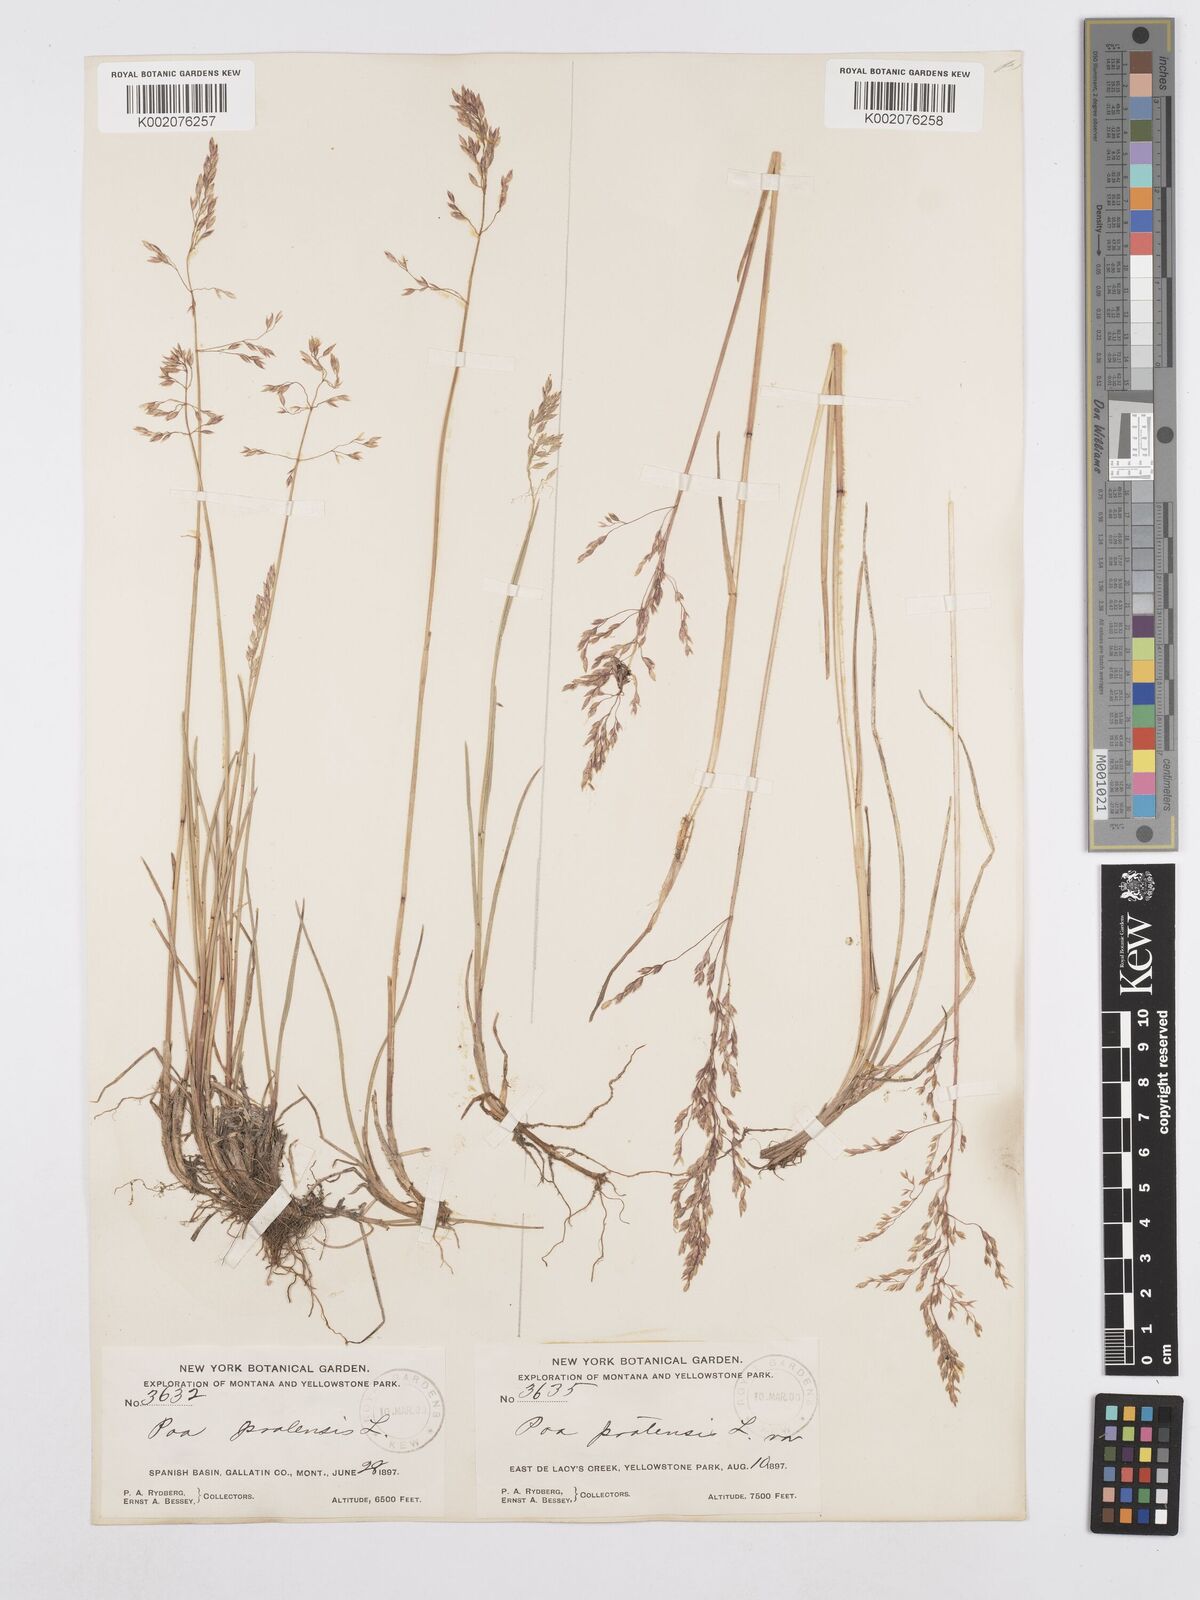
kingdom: Plantae
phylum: Tracheophyta
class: Liliopsida
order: Poales
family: Poaceae
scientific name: Poaceae
